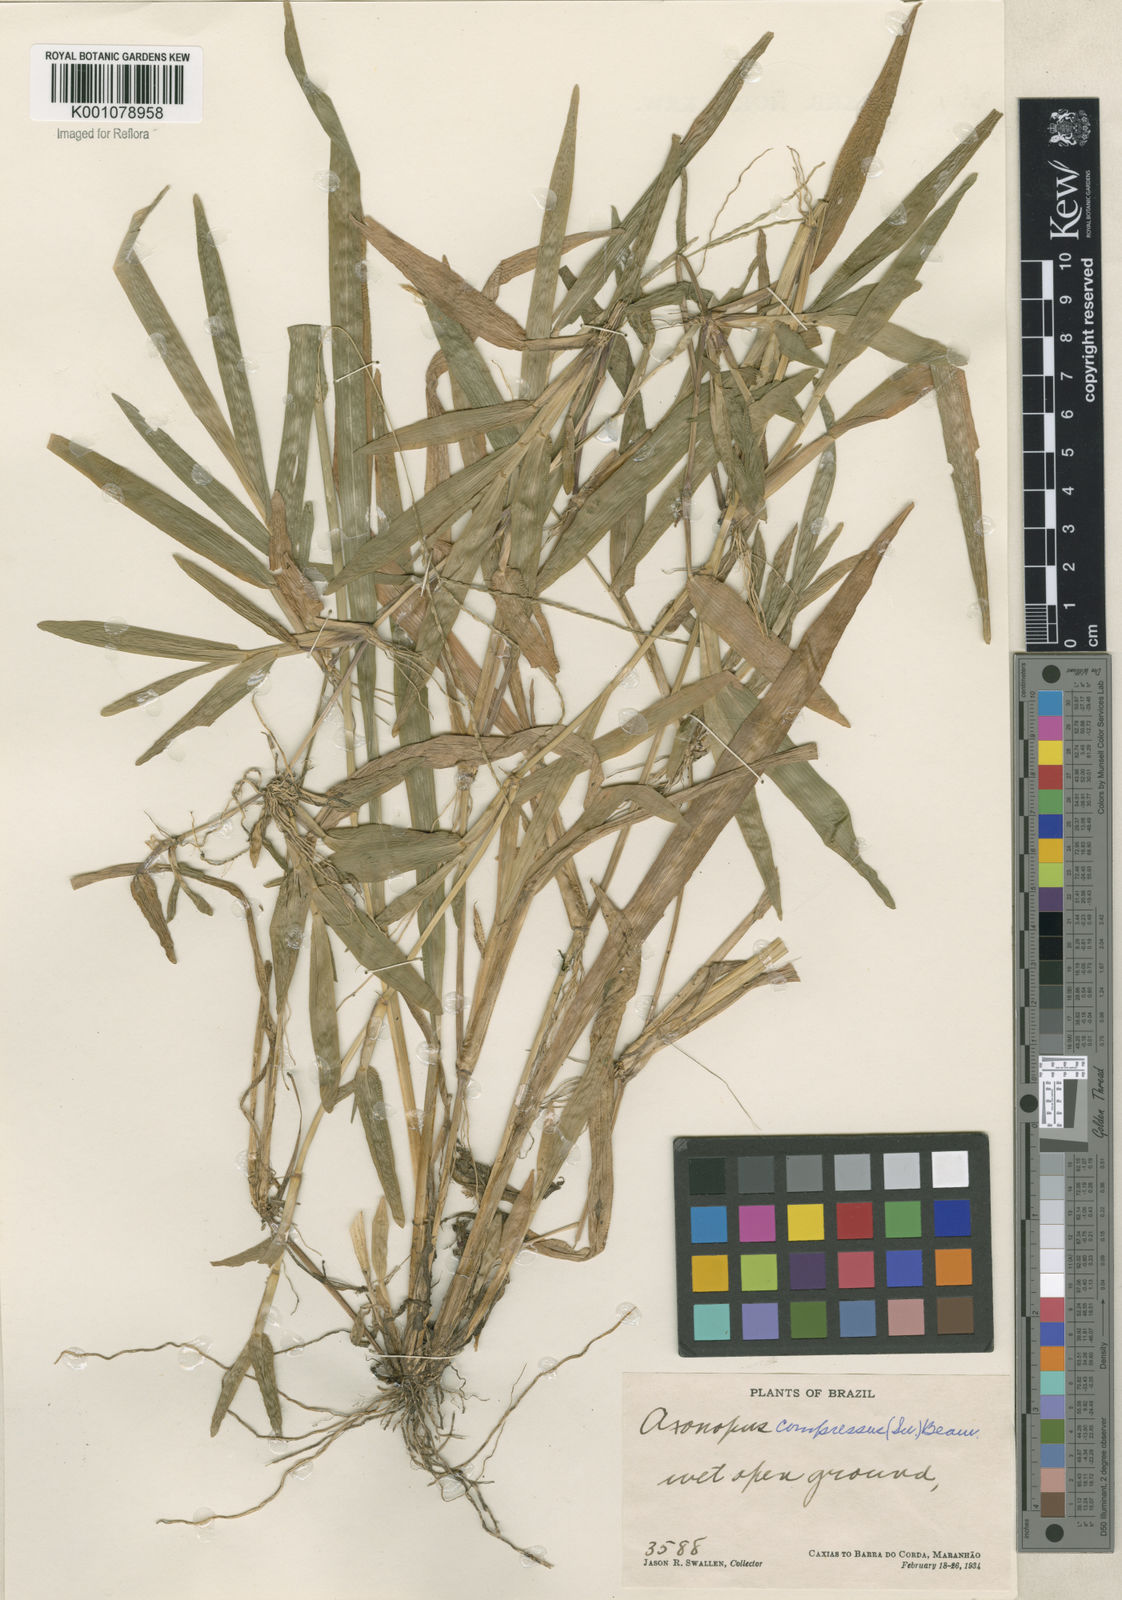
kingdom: Plantae
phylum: Tracheophyta
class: Liliopsida
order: Poales
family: Poaceae
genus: Axonopus
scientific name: Axonopus compressus
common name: American carpet grass
